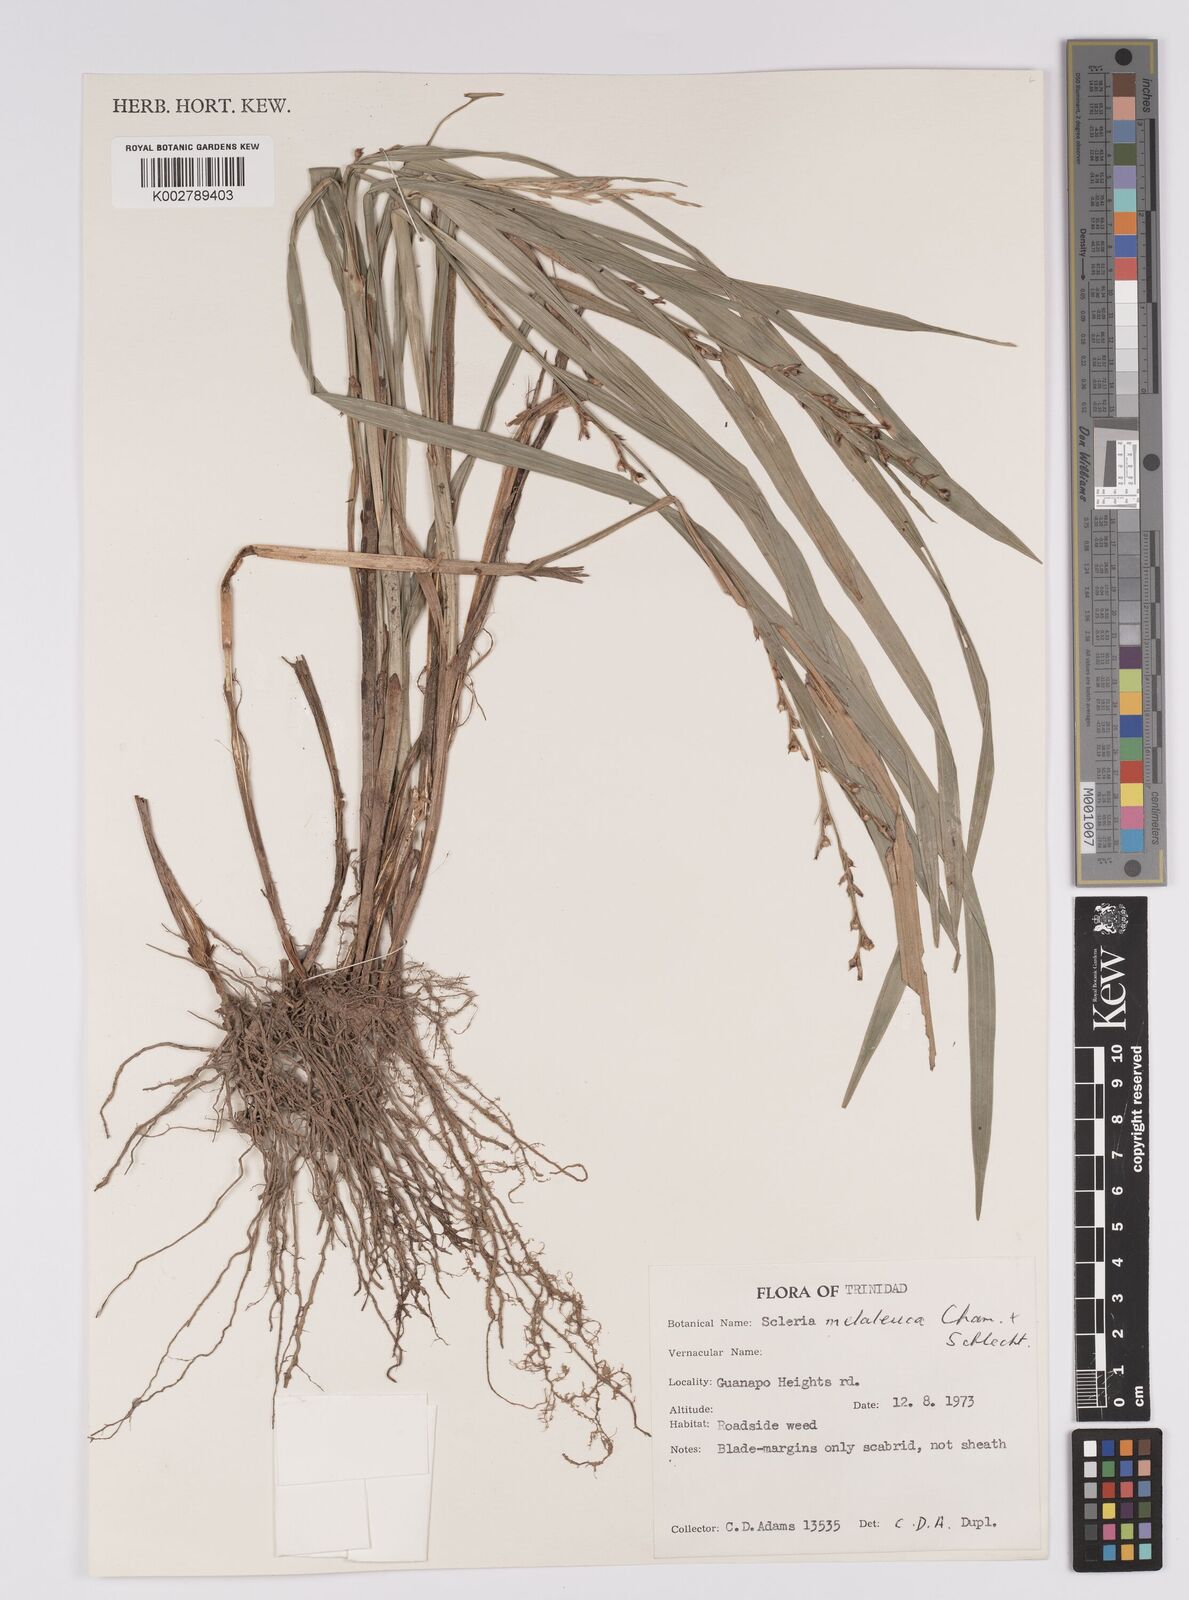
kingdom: Plantae
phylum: Tracheophyta
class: Liliopsida
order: Poales
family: Cyperaceae
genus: Scleria
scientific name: Scleria gaertneri
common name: Cortadera blanca
